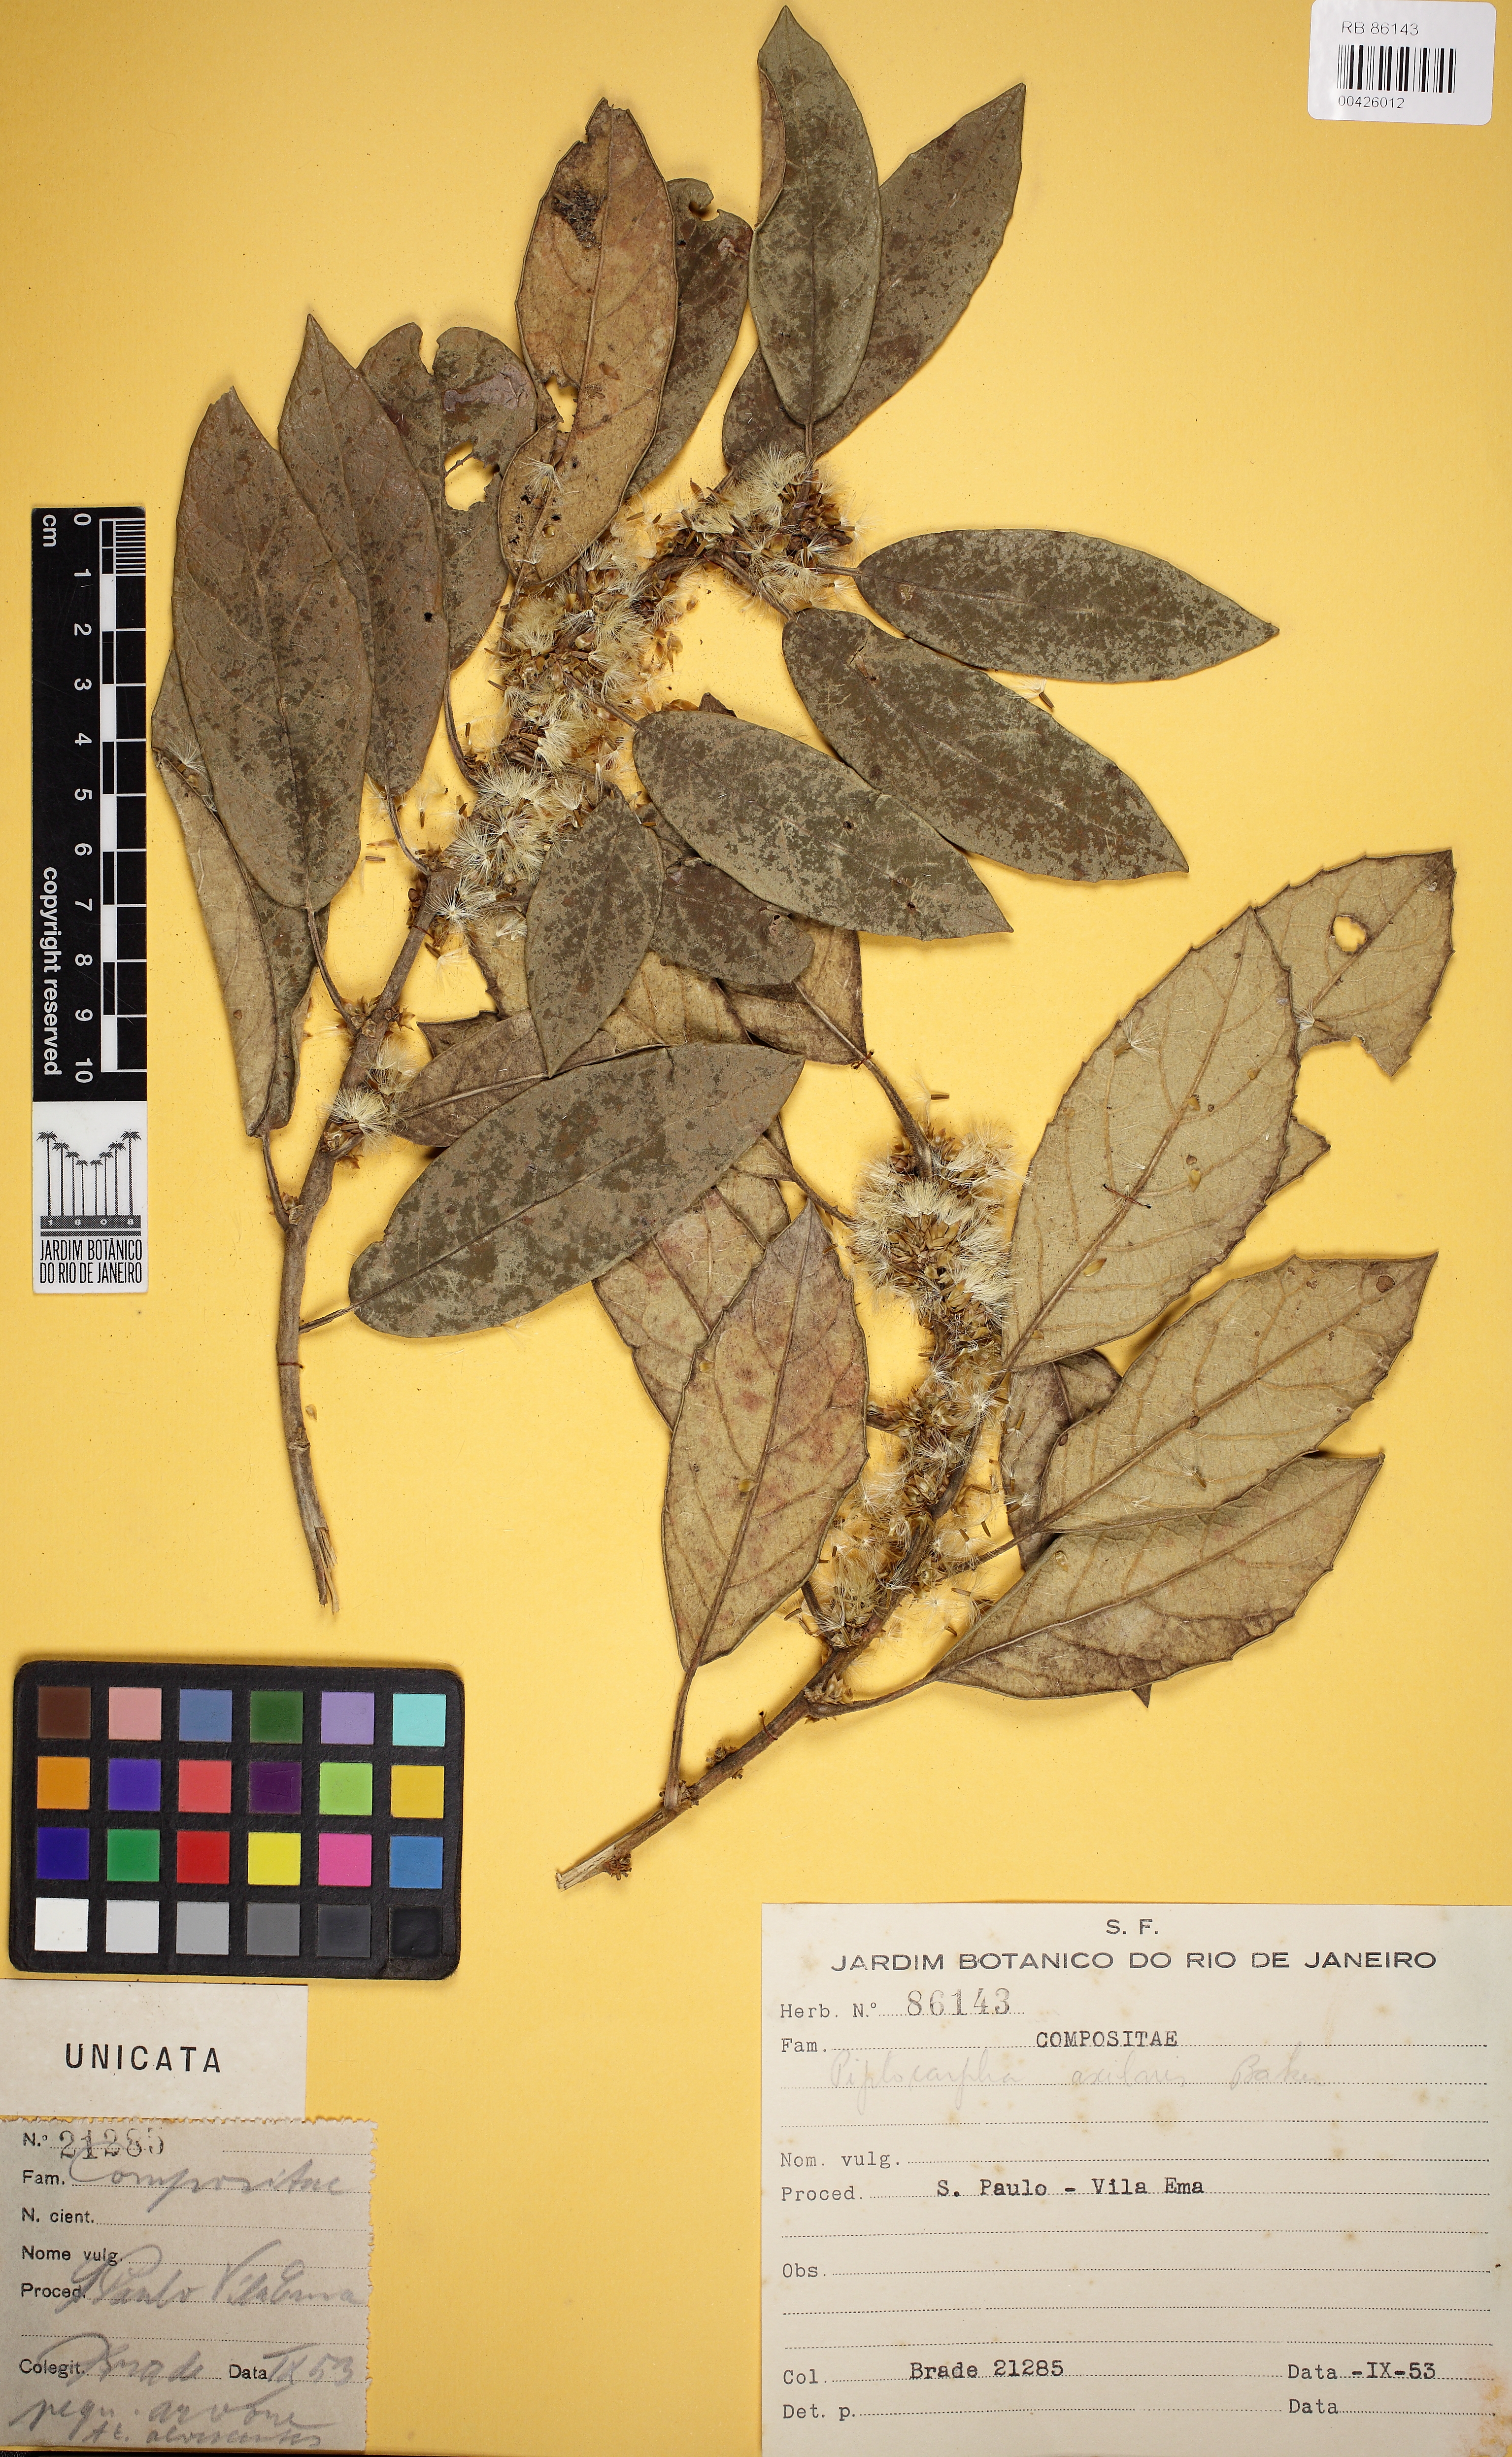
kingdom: Plantae
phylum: Tracheophyta
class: Magnoliopsida
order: Asterales
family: Asteraceae
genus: Piptocarpha
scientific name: Piptocarpha axillaris
